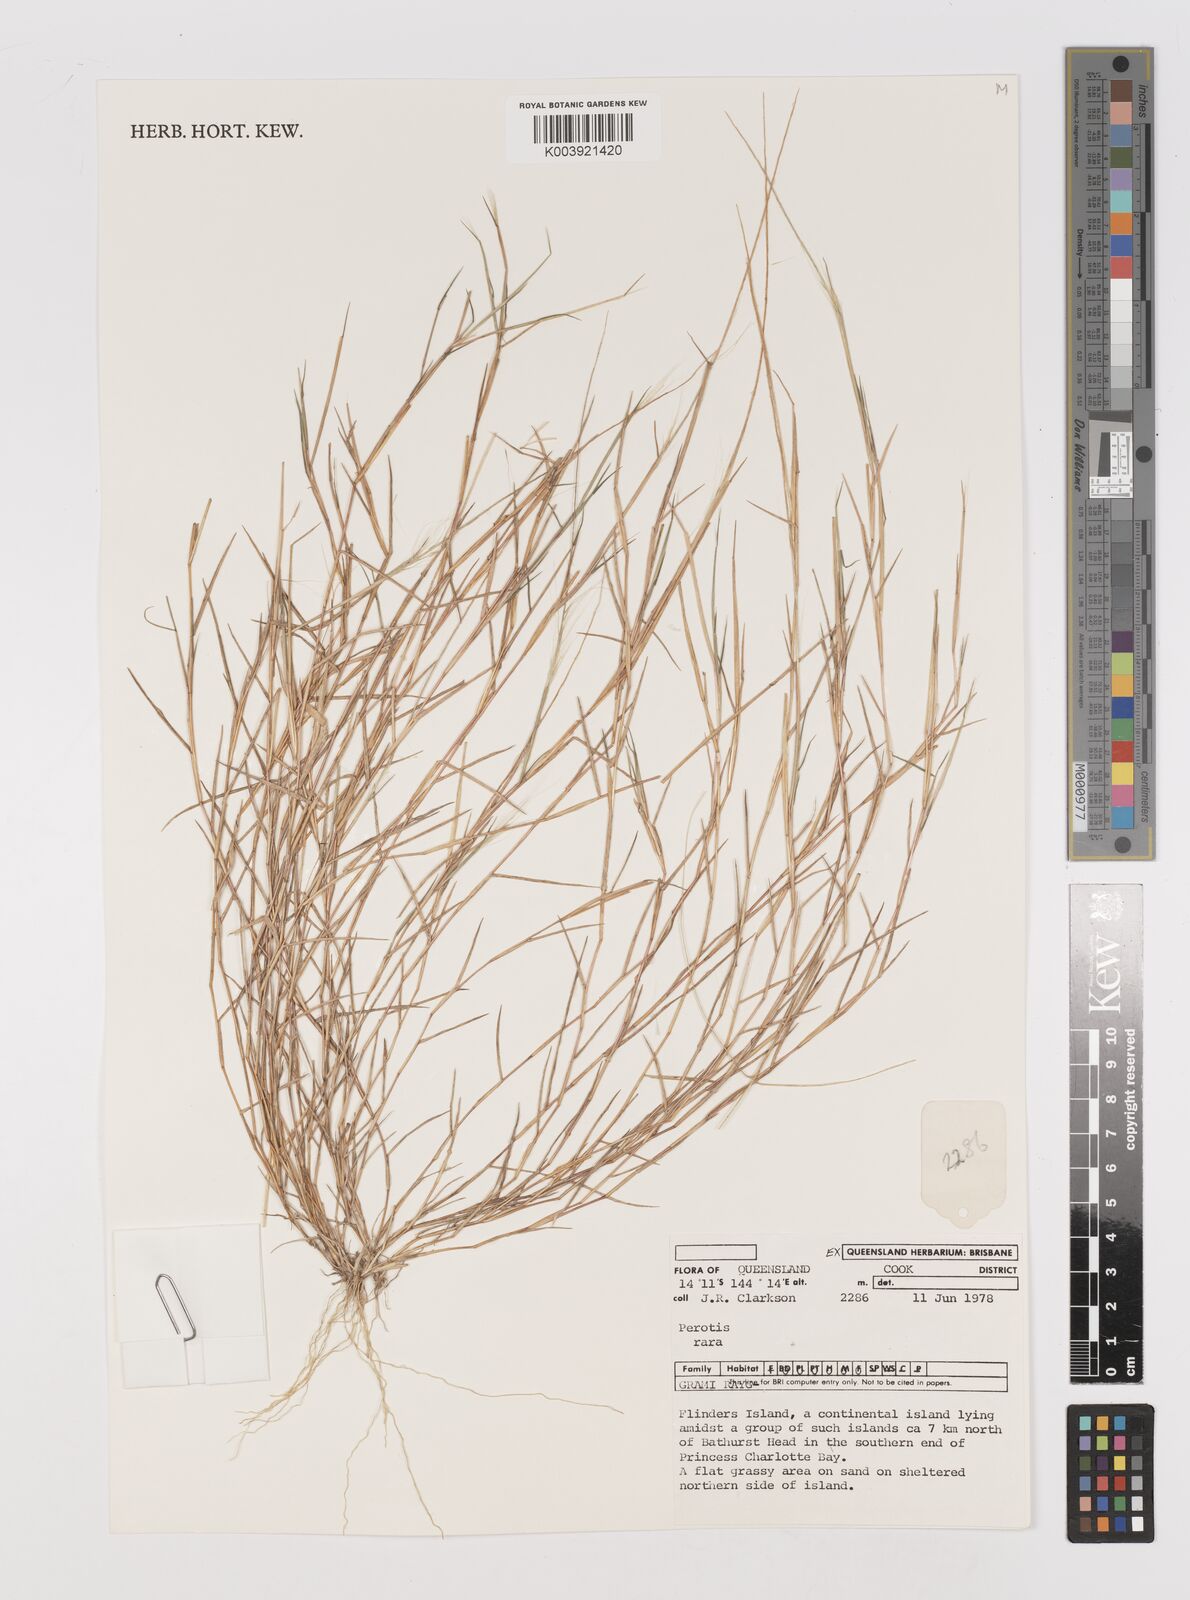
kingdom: Plantae
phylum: Tracheophyta
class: Liliopsida
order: Poales
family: Poaceae
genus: Perotis
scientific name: Perotis rara
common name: Comet grass
